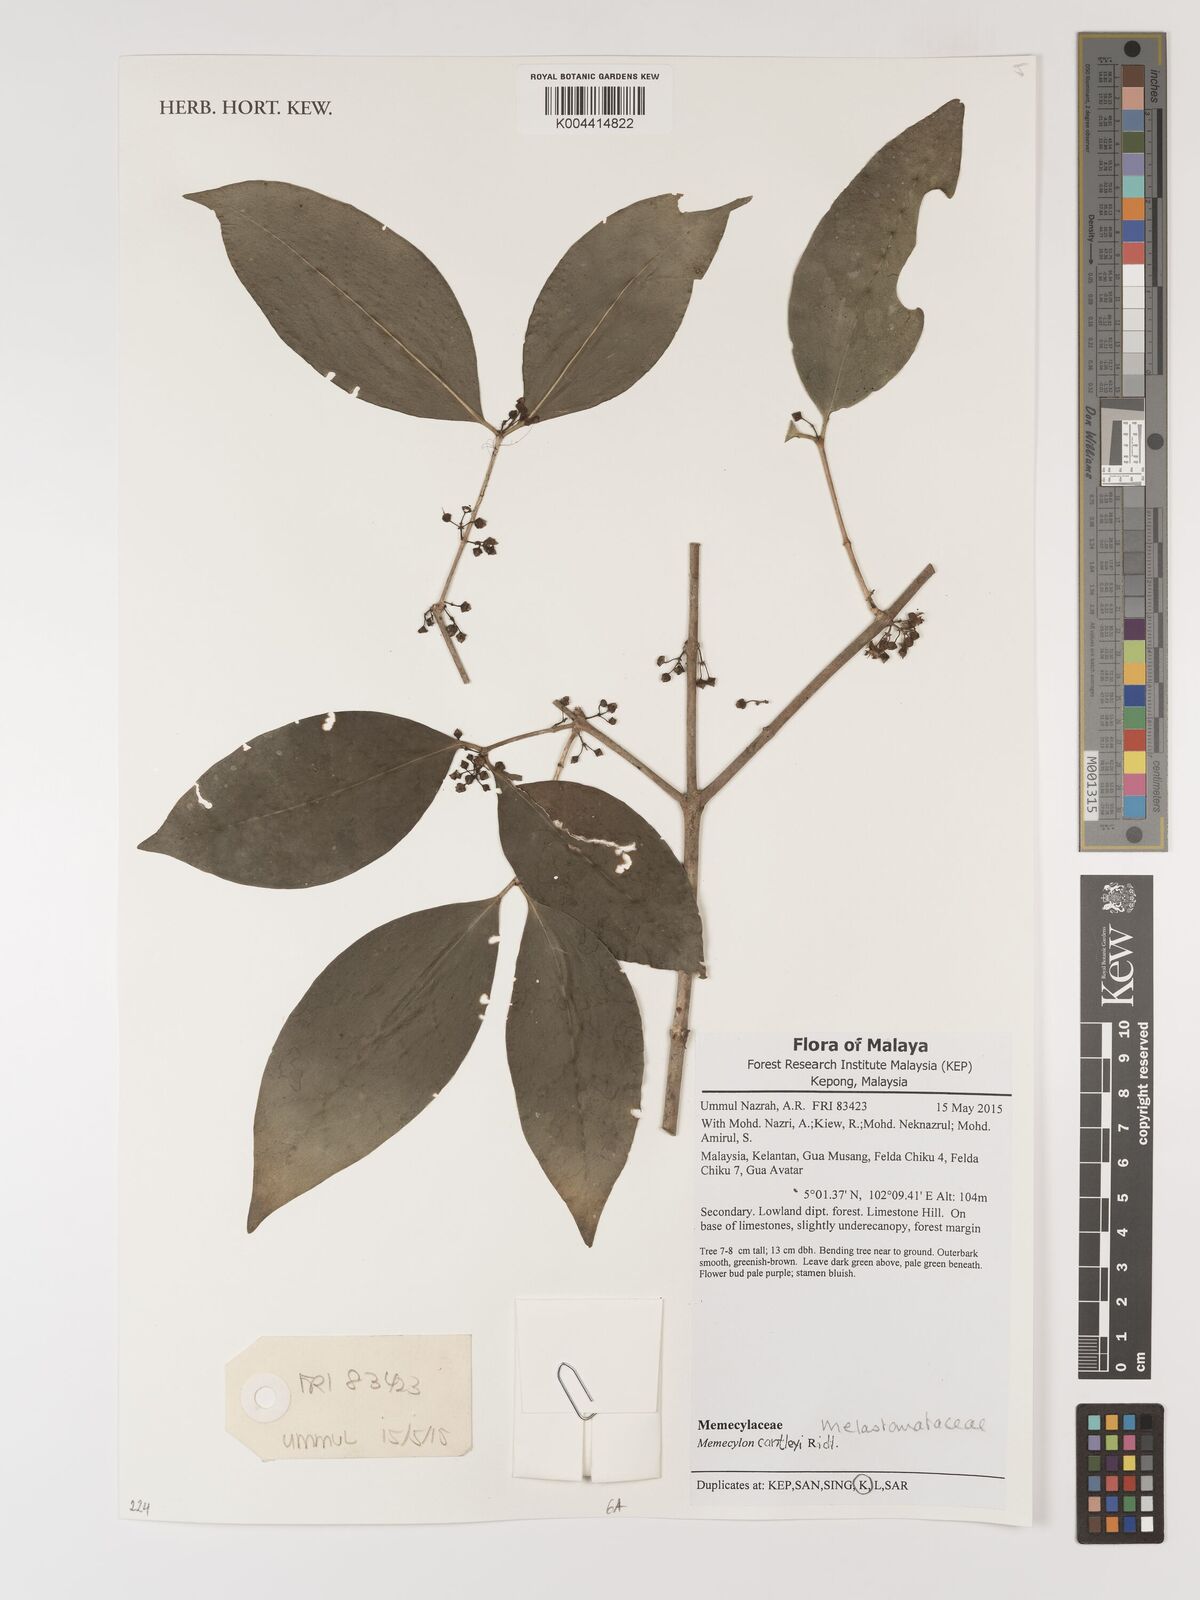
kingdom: Plantae
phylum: Tracheophyta
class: Magnoliopsida
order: Myrtales
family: Melastomataceae
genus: Memecylon
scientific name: Memecylon cantleyi
